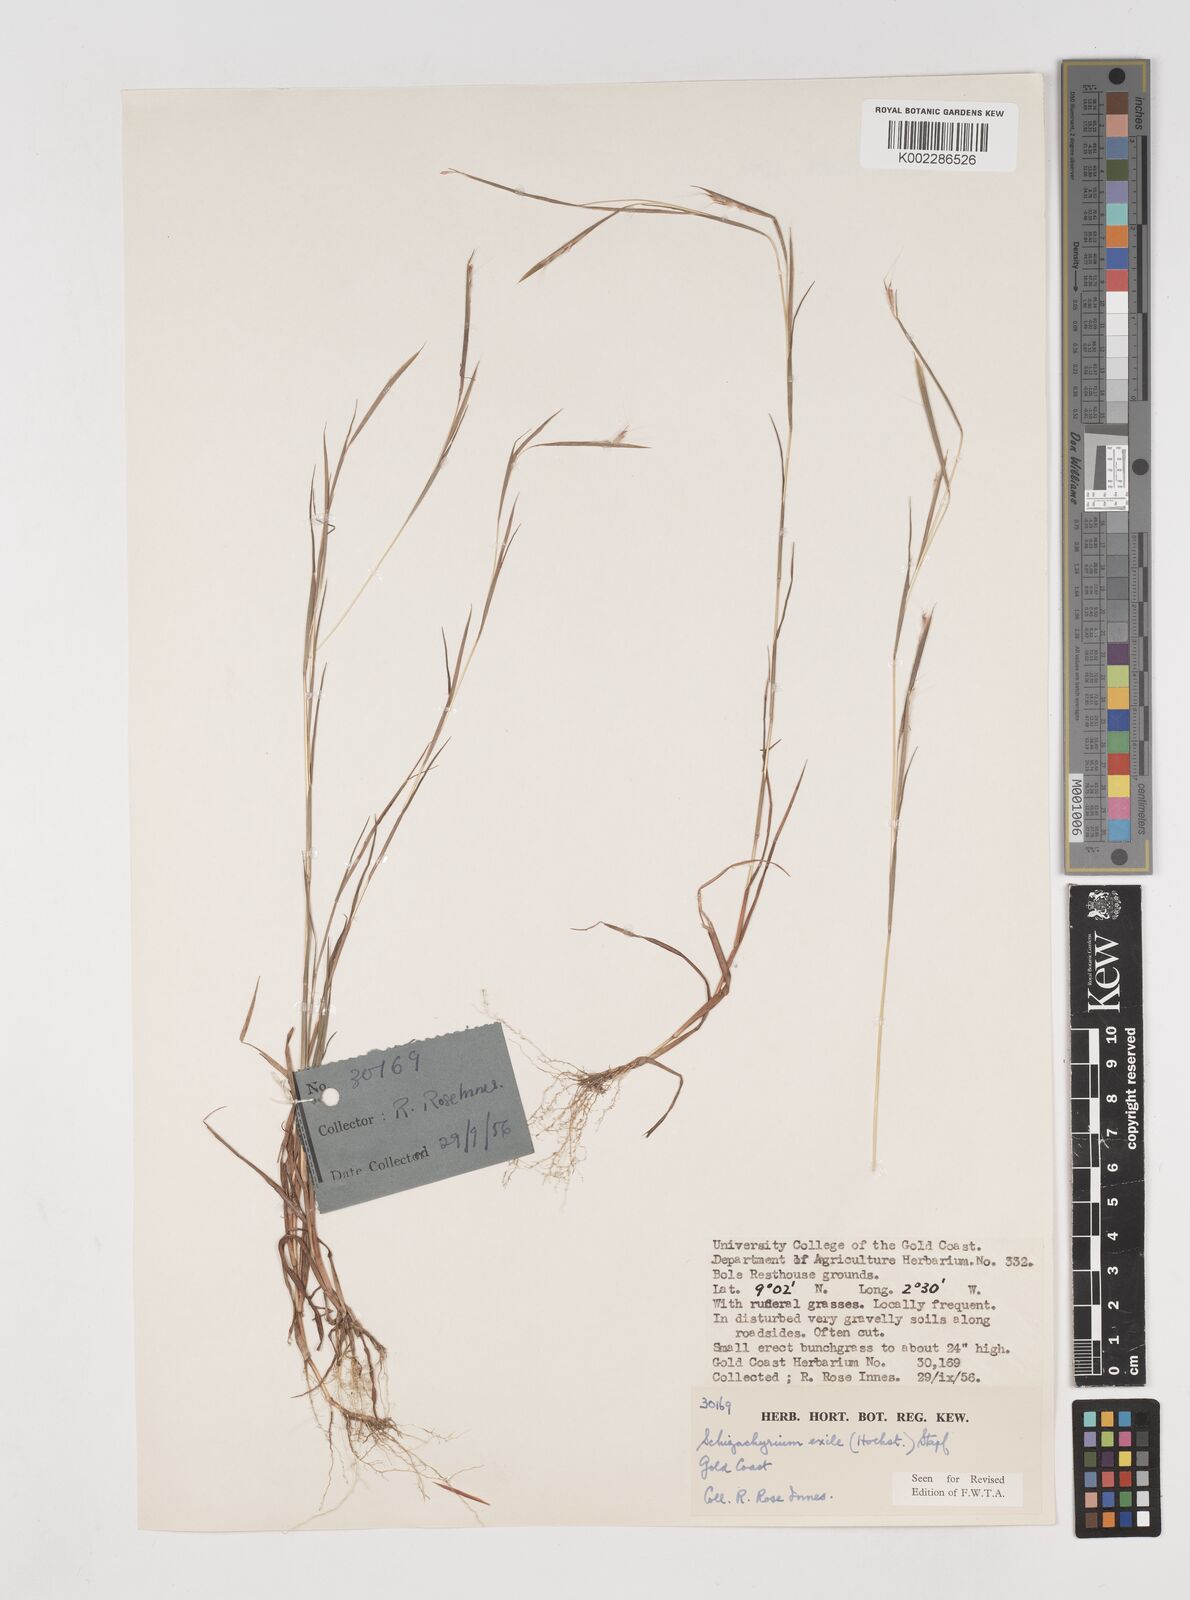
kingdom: Plantae
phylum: Tracheophyta
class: Liliopsida
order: Poales
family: Poaceae
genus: Schizachyrium
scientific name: Schizachyrium exile
